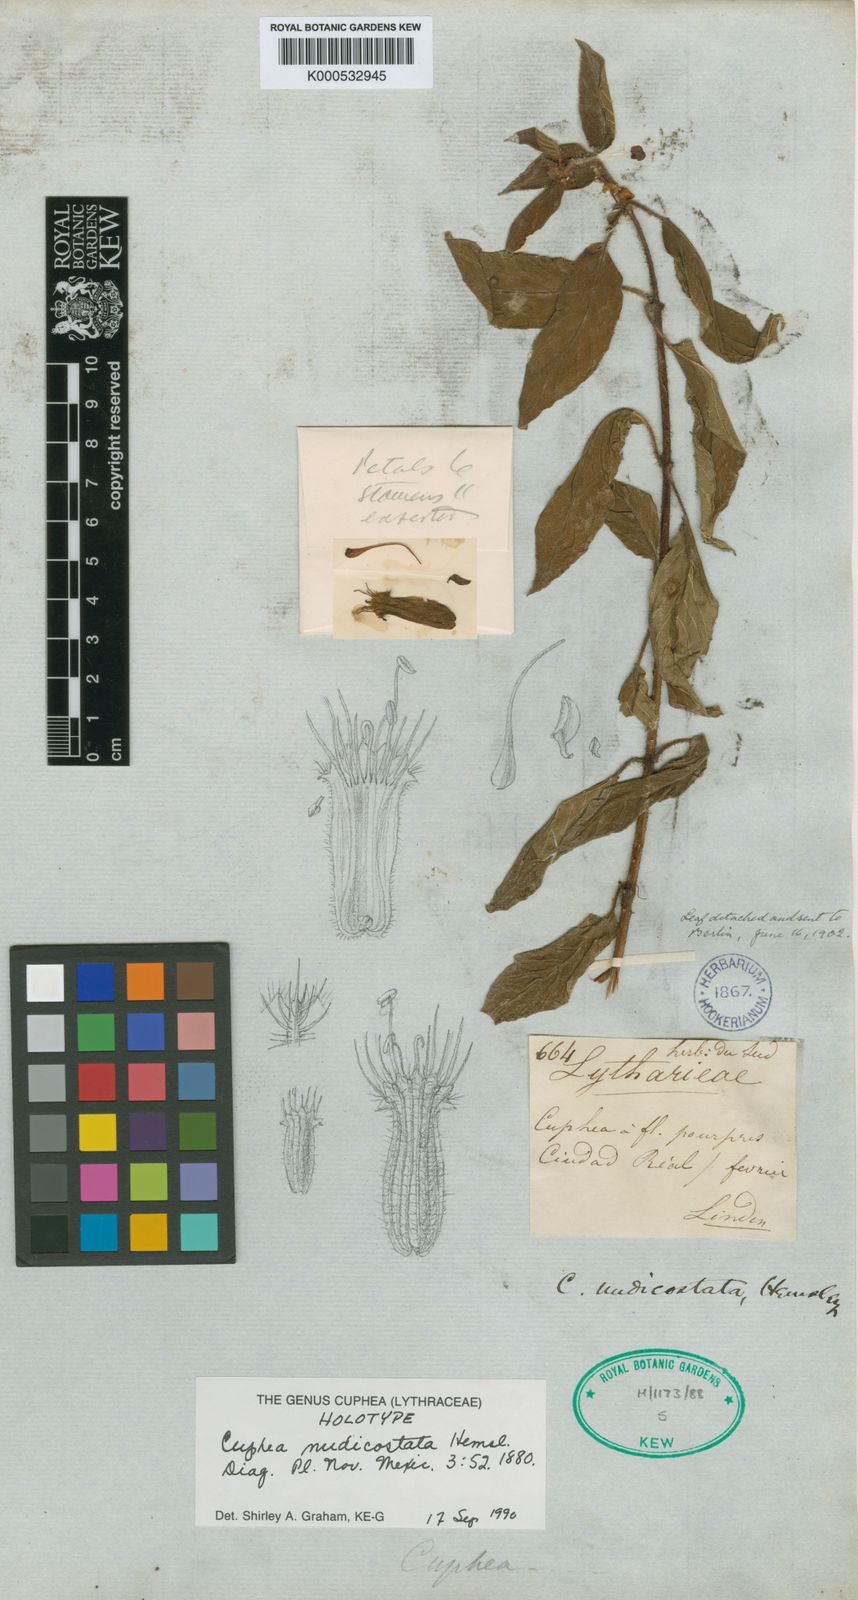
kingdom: Plantae
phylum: Tracheophyta
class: Magnoliopsida
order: Myrtales
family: Lythraceae
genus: Cuphea
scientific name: Cuphea nudicostata
